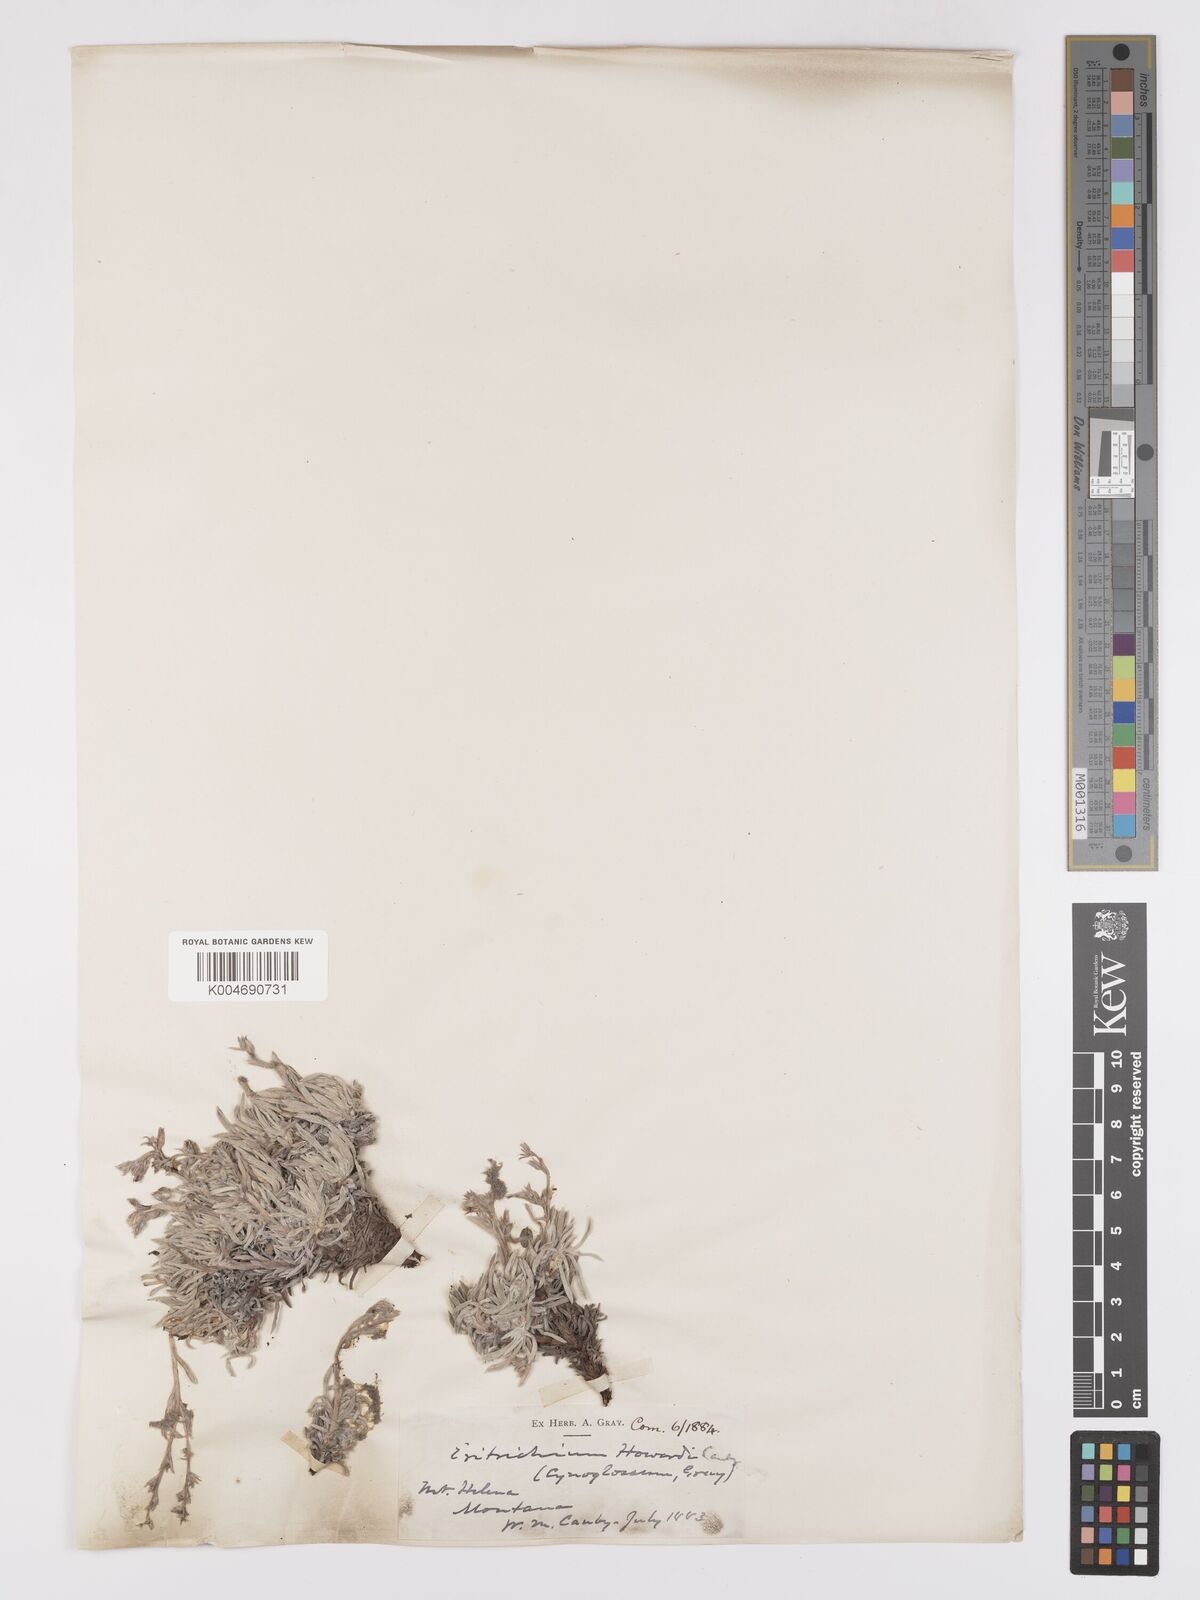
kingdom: Plantae
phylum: Tracheophyta
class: Magnoliopsida
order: Boraginales
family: Boraginaceae
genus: Eritrichium
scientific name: Eritrichium howardii
